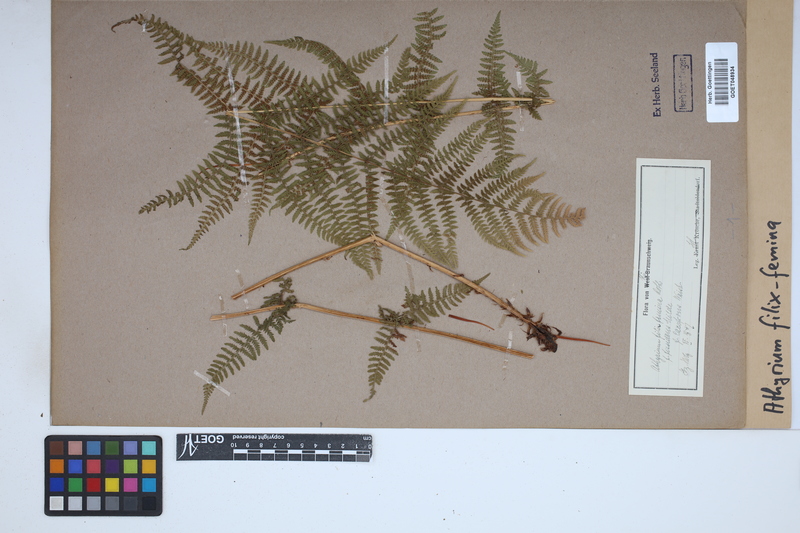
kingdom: Plantae
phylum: Tracheophyta
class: Polypodiopsida
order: Polypodiales
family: Athyriaceae
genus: Athyrium
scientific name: Athyrium filix-femina
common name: Lady fern
